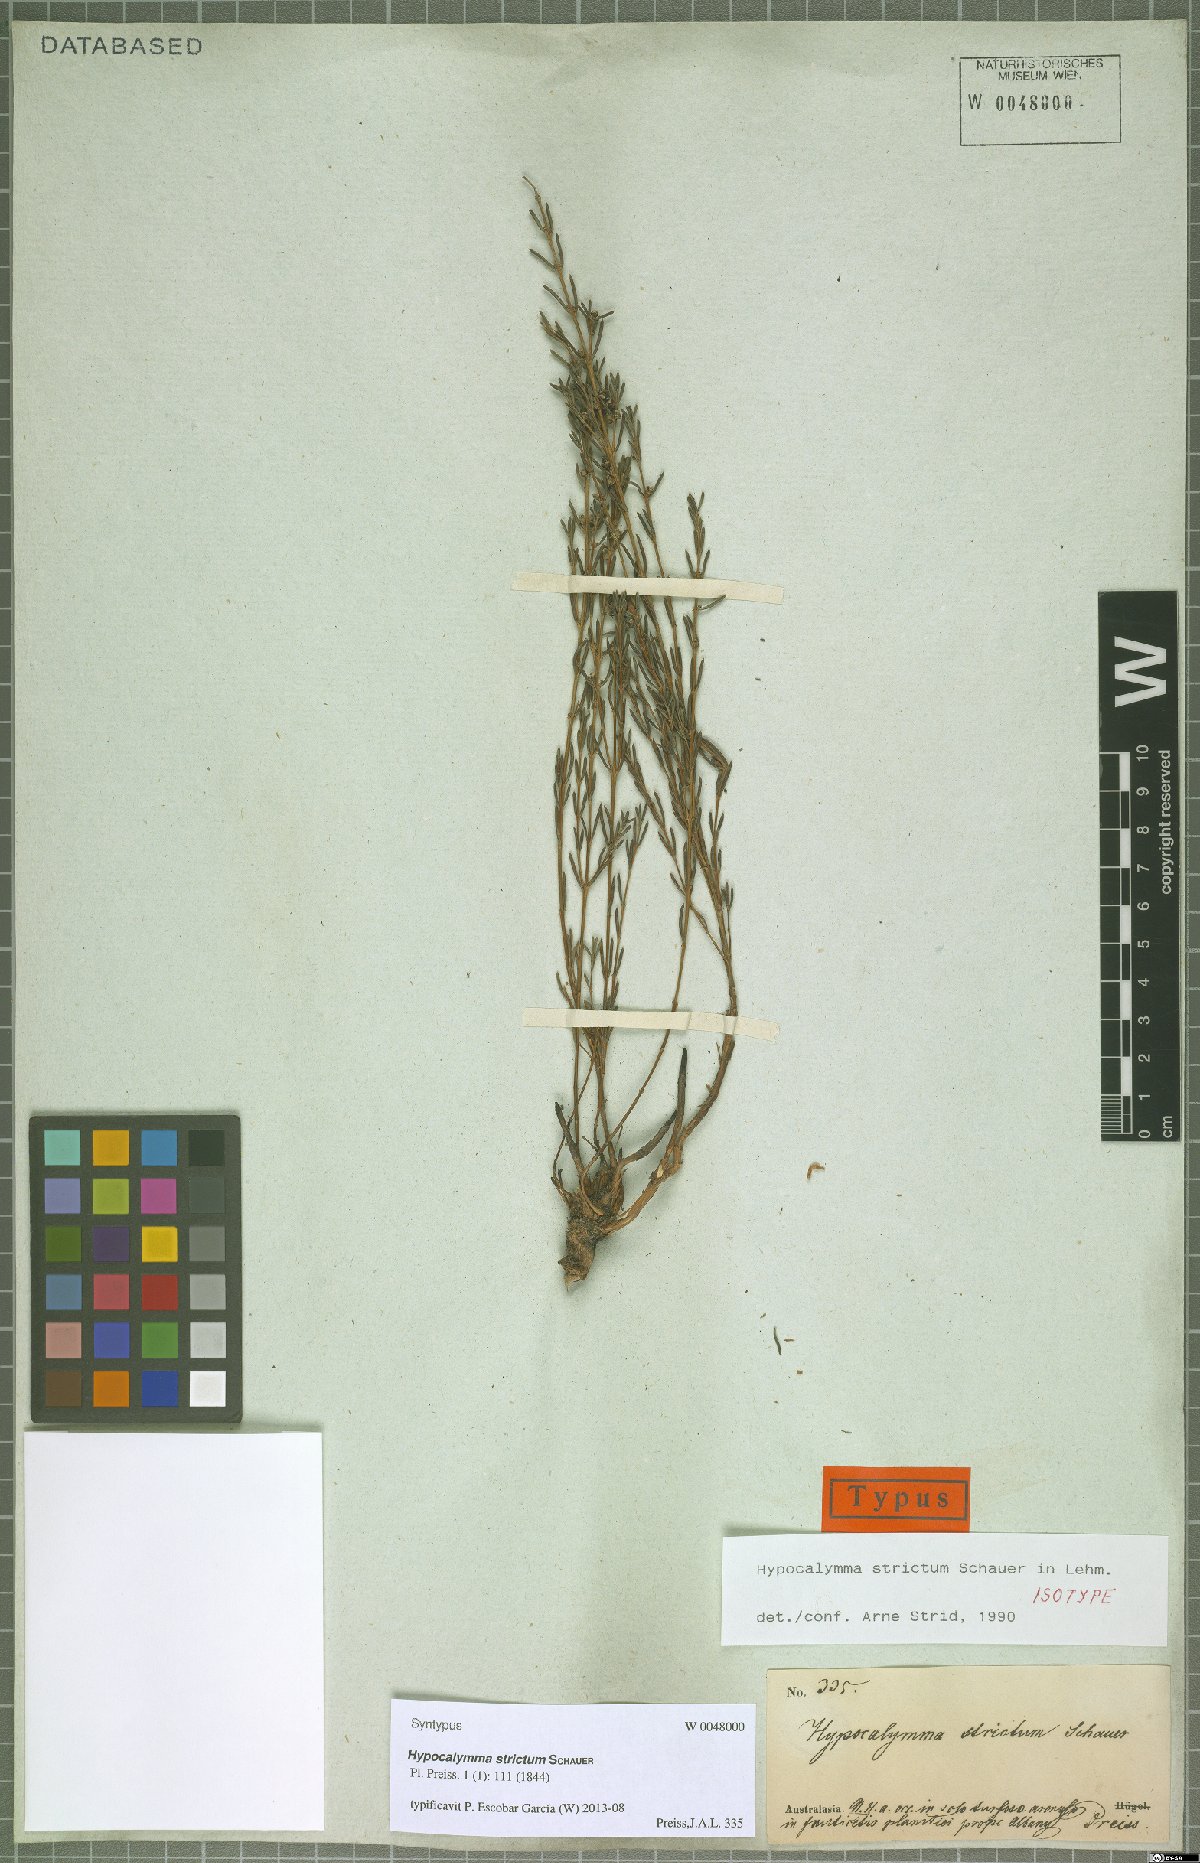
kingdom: Plantae
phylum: Tracheophyta
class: Magnoliopsida
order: Myrtales
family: Myrtaceae
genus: Hypocalymma
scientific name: Hypocalymma strictum
